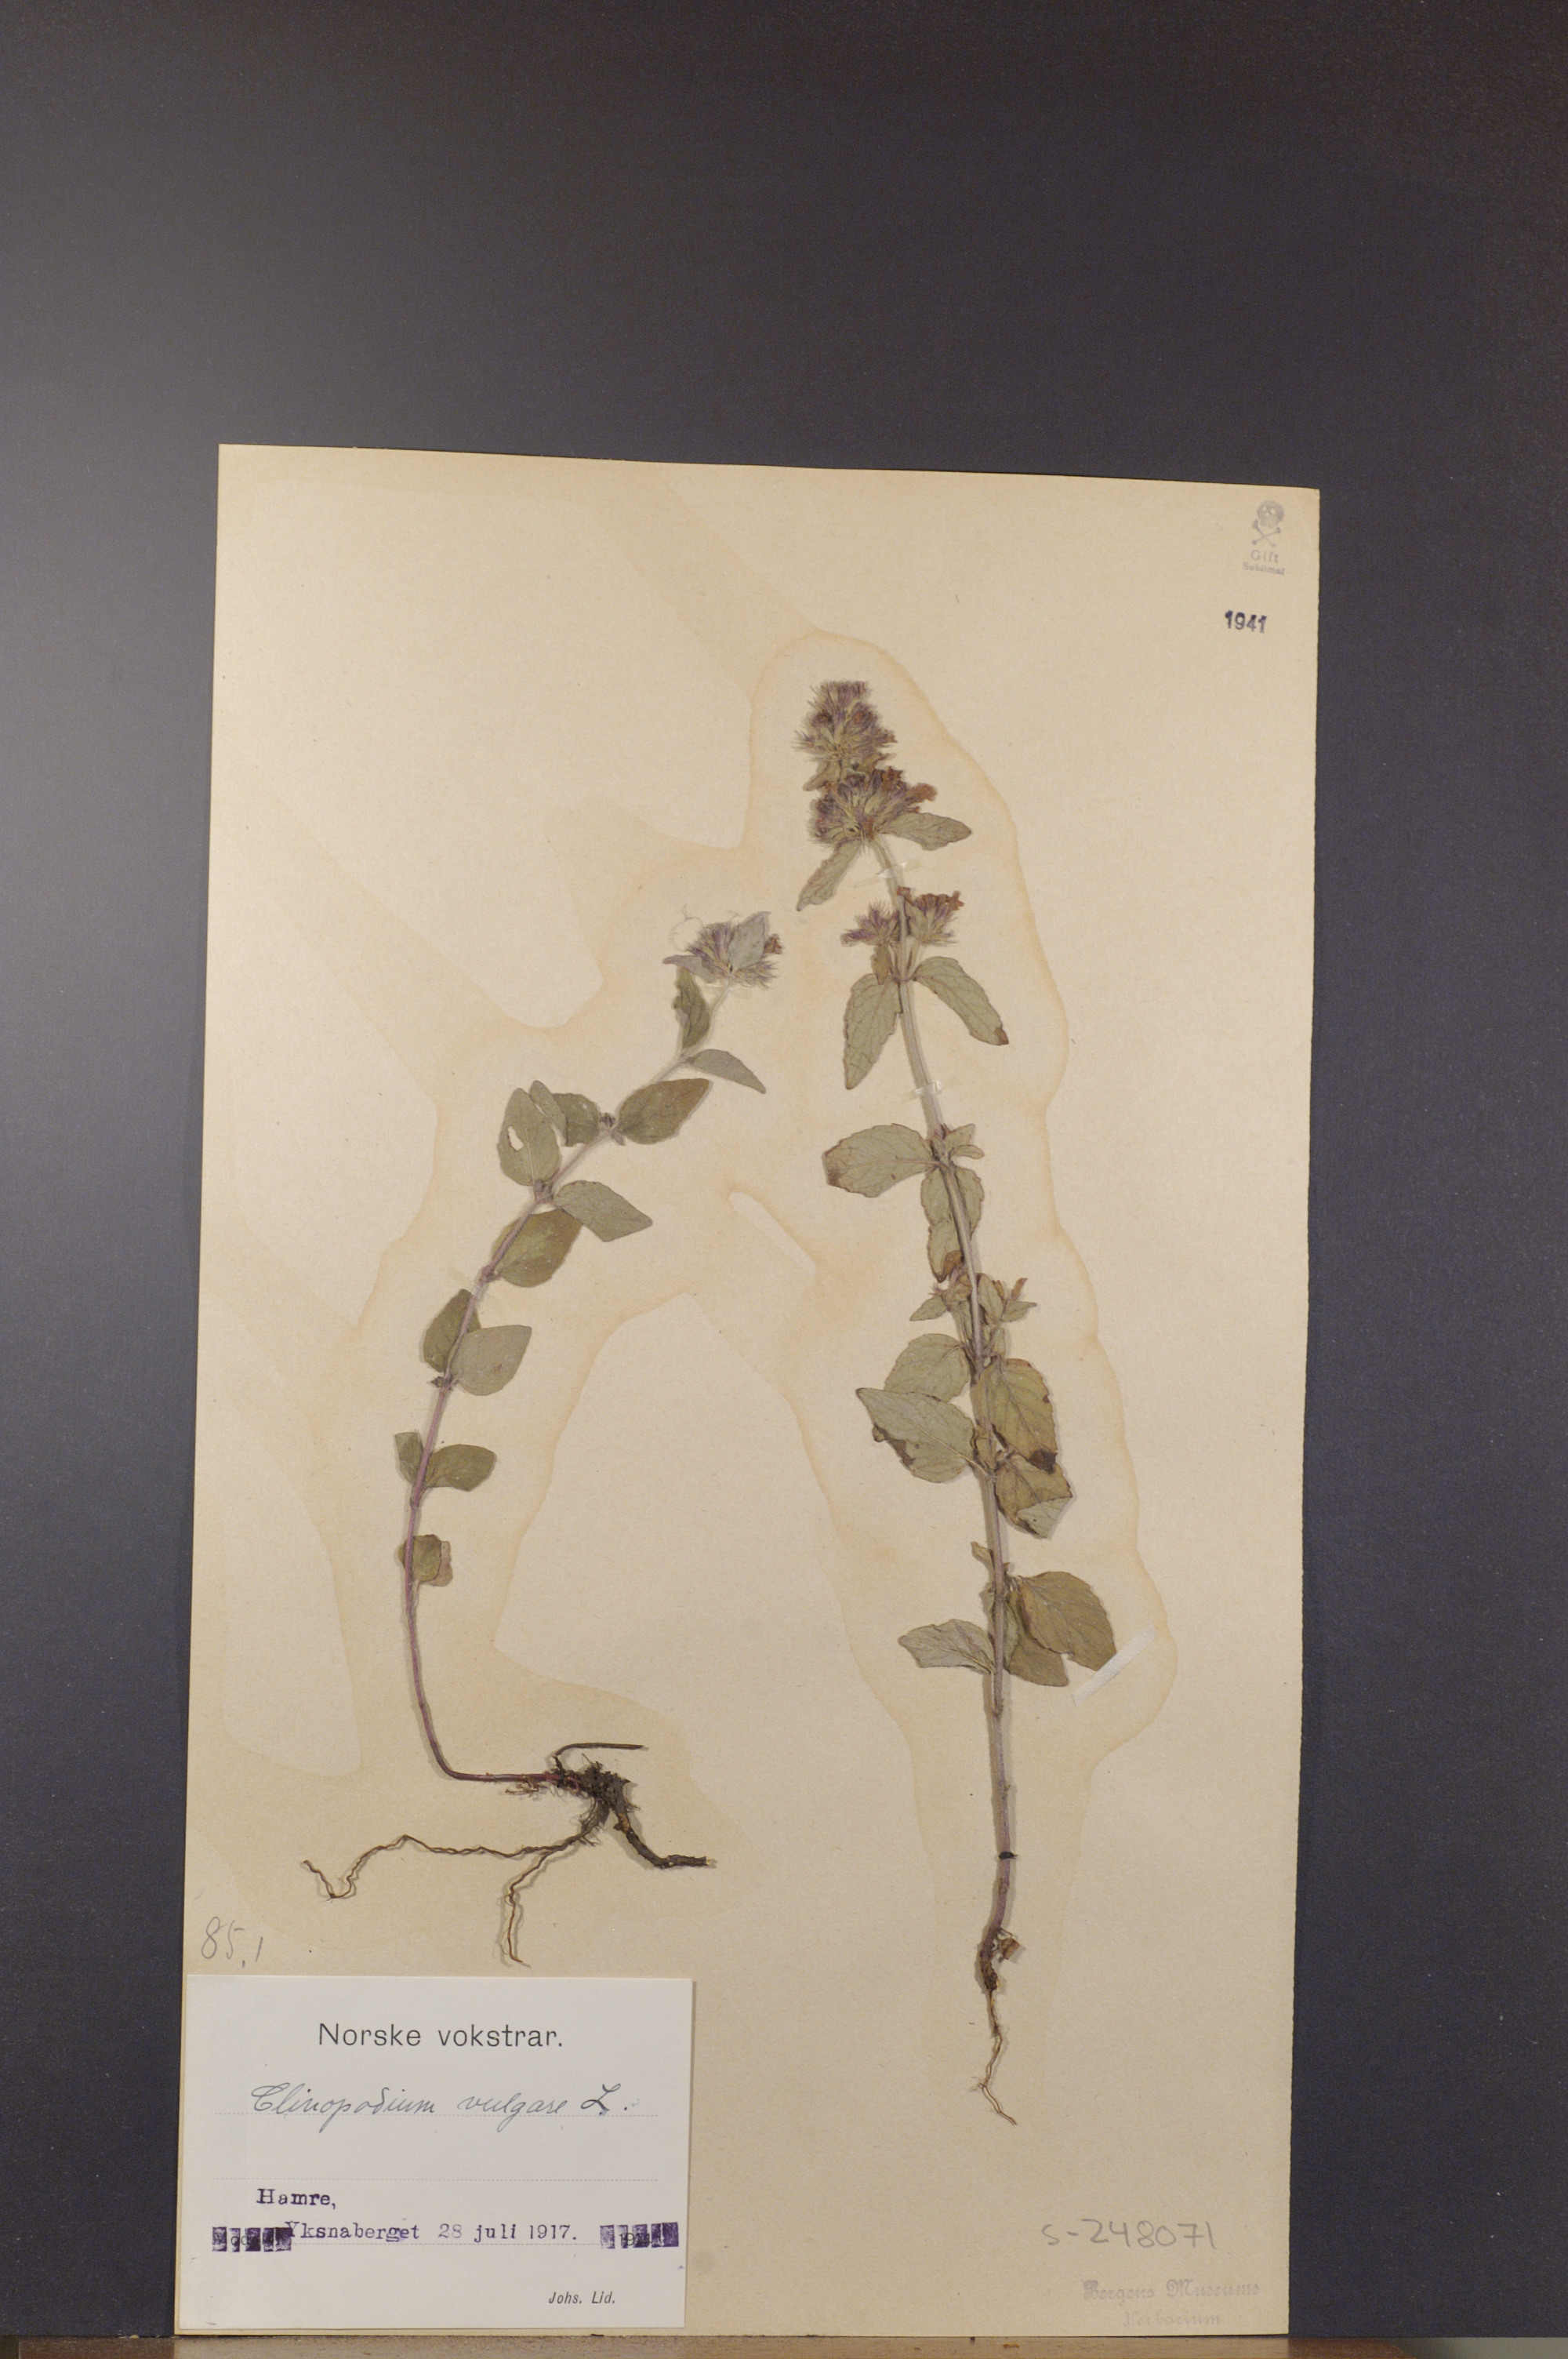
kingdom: Plantae
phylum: Tracheophyta
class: Magnoliopsida
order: Lamiales
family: Lamiaceae
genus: Clinopodium
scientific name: Clinopodium vulgare
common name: Wild basil
